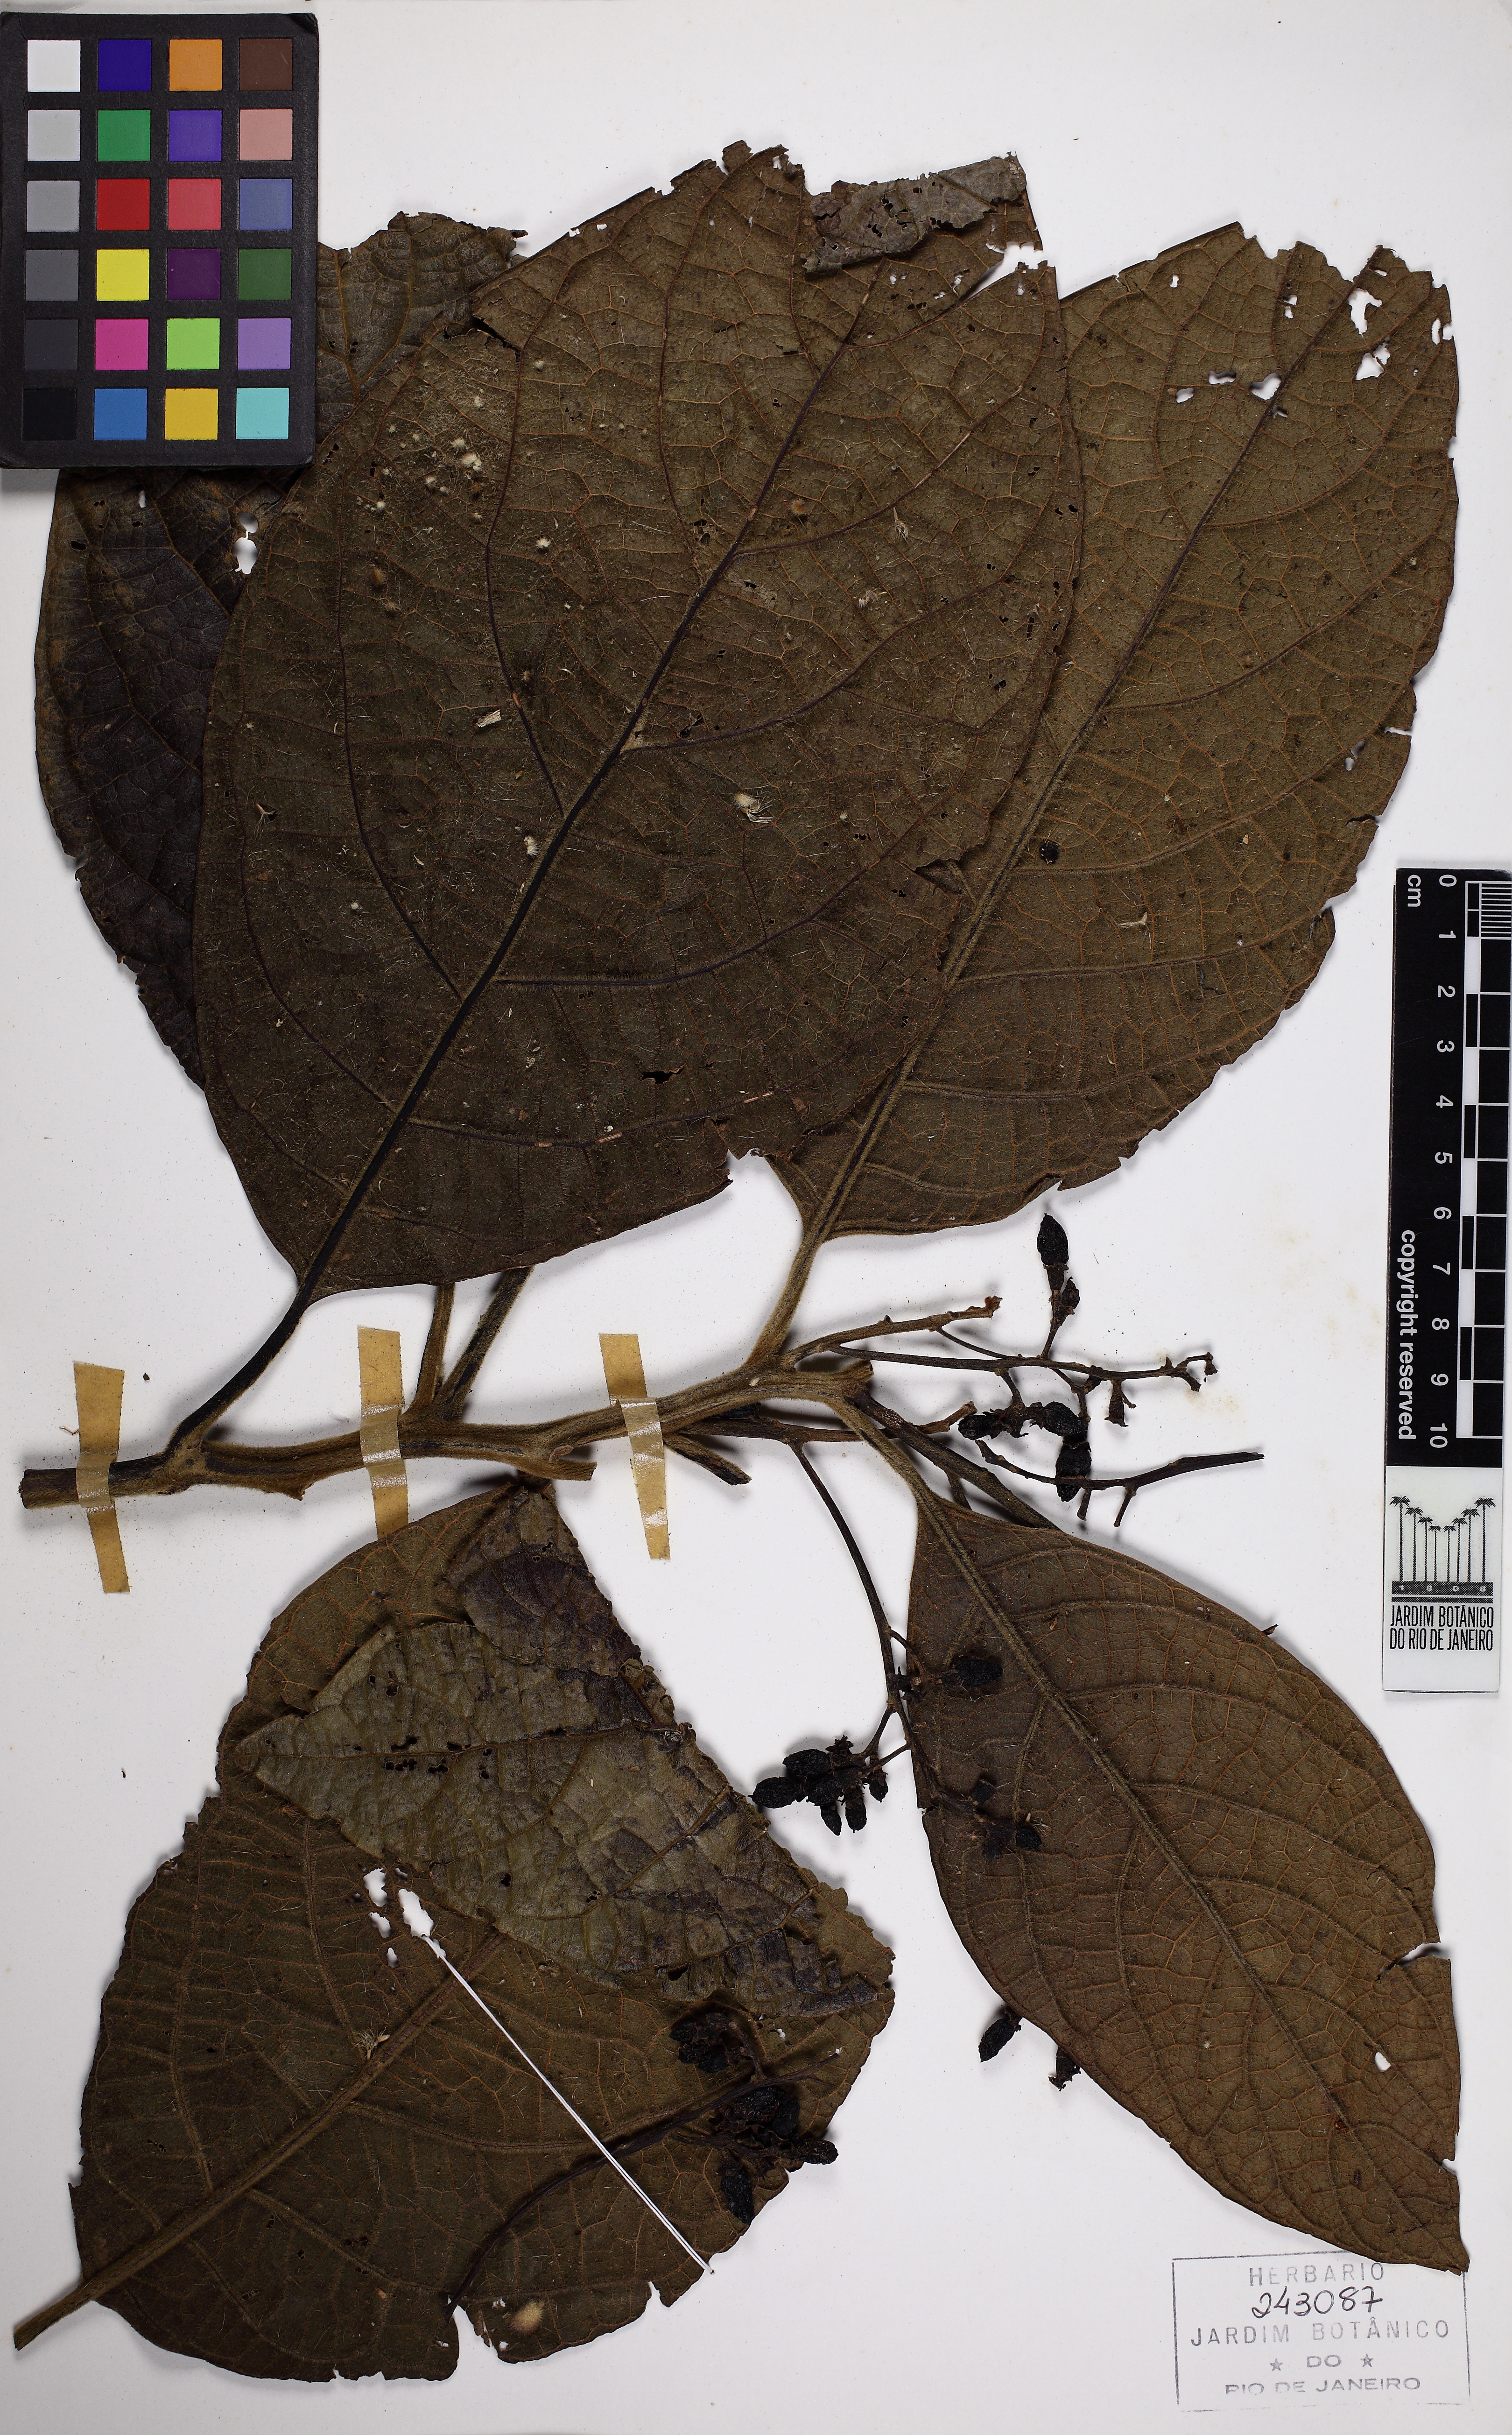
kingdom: Plantae
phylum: Tracheophyta
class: Magnoliopsida
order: Laurales
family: Lauraceae
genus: Ocotea
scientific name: Ocotea tabacifolia
